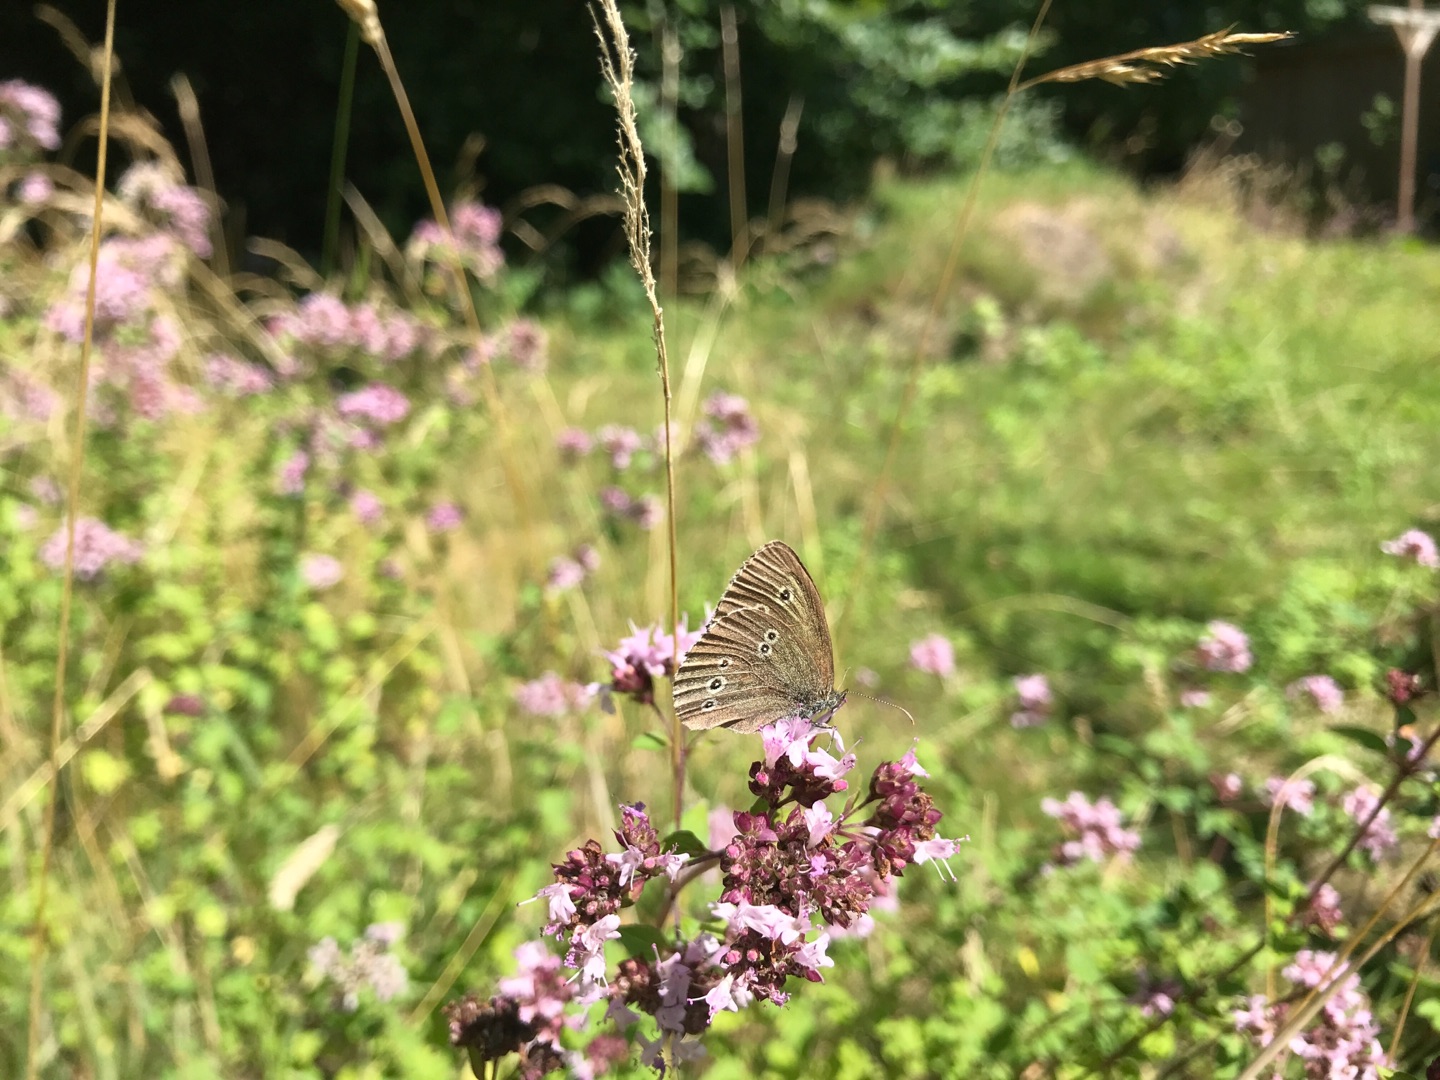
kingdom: Animalia
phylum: Arthropoda
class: Insecta
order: Lepidoptera
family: Nymphalidae
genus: Aphantopus
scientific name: Aphantopus hyperantus
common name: Engrandøje
